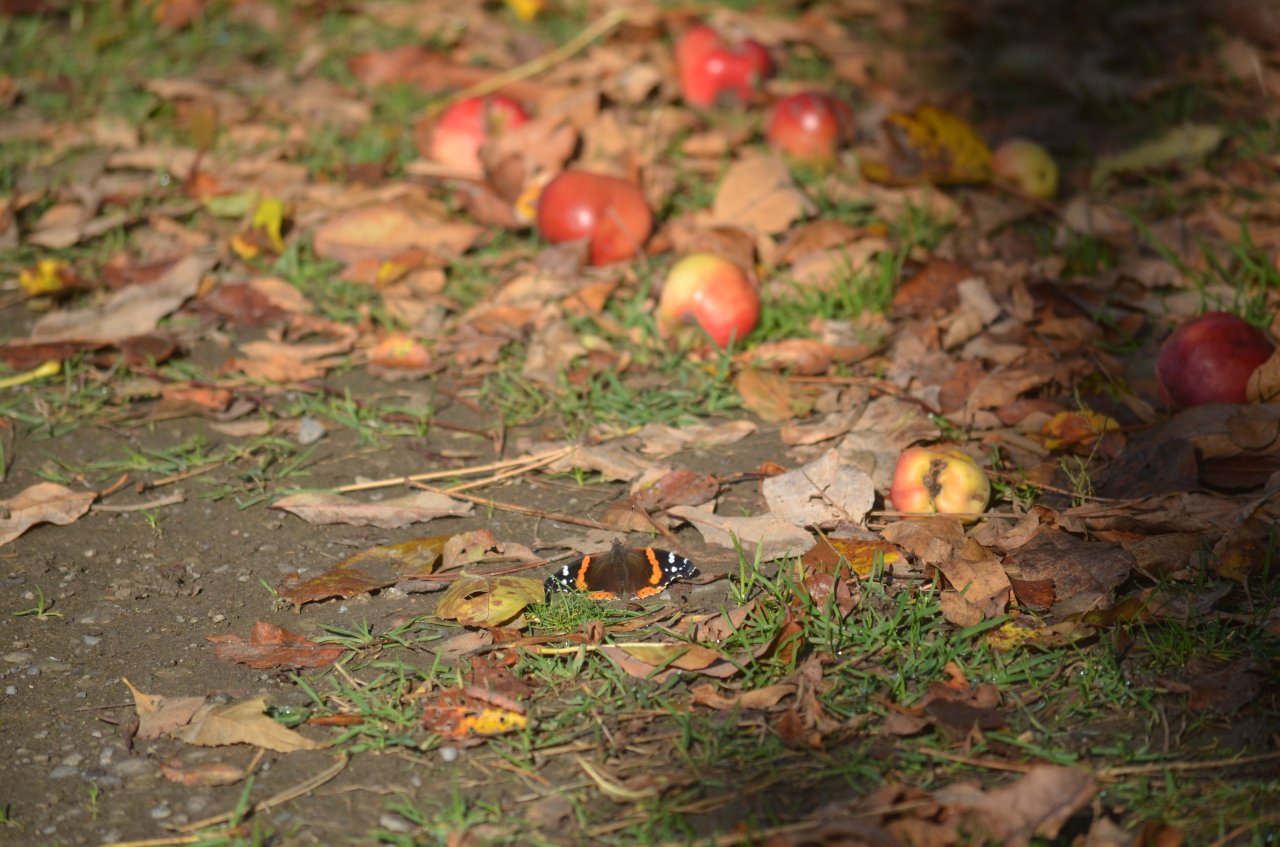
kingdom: Animalia
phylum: Arthropoda
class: Insecta
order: Lepidoptera
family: Nymphalidae
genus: Vanessa
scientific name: Vanessa atalanta
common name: Red Admiral
